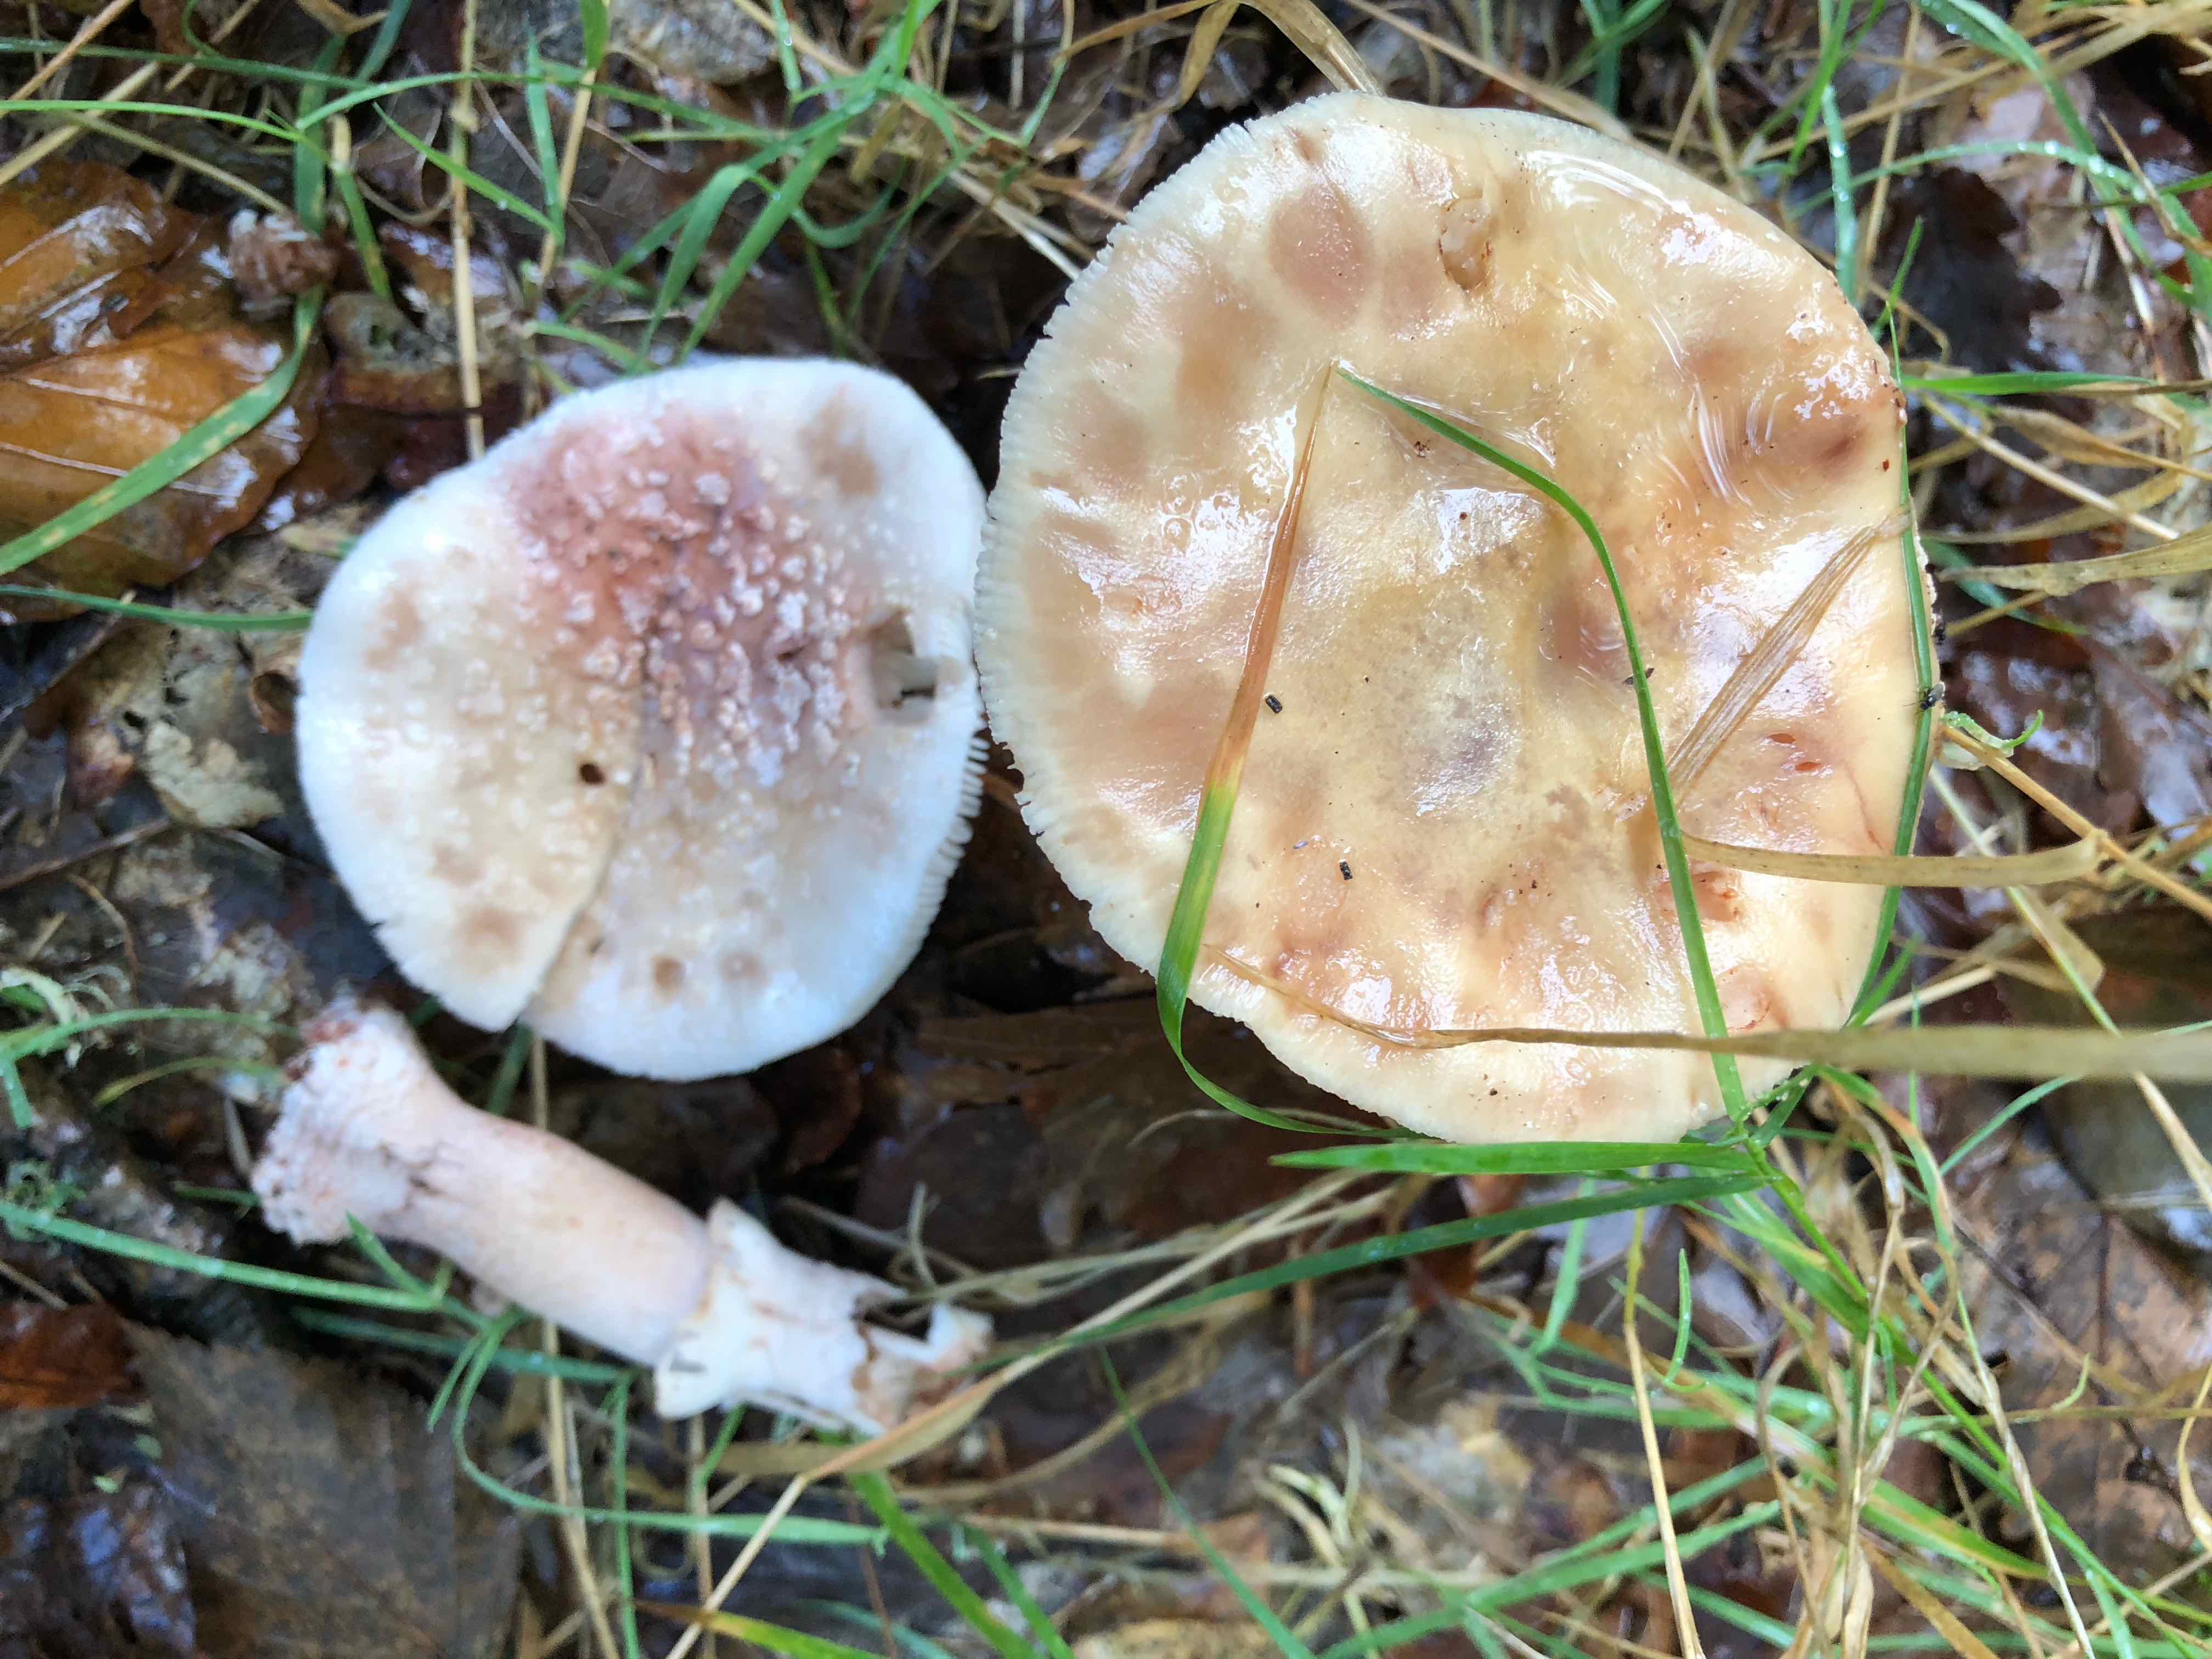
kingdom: Fungi
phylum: Basidiomycota
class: Agaricomycetes
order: Agaricales
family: Amanitaceae
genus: Amanita
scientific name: Amanita rubescens
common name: rødmende fluesvamp
